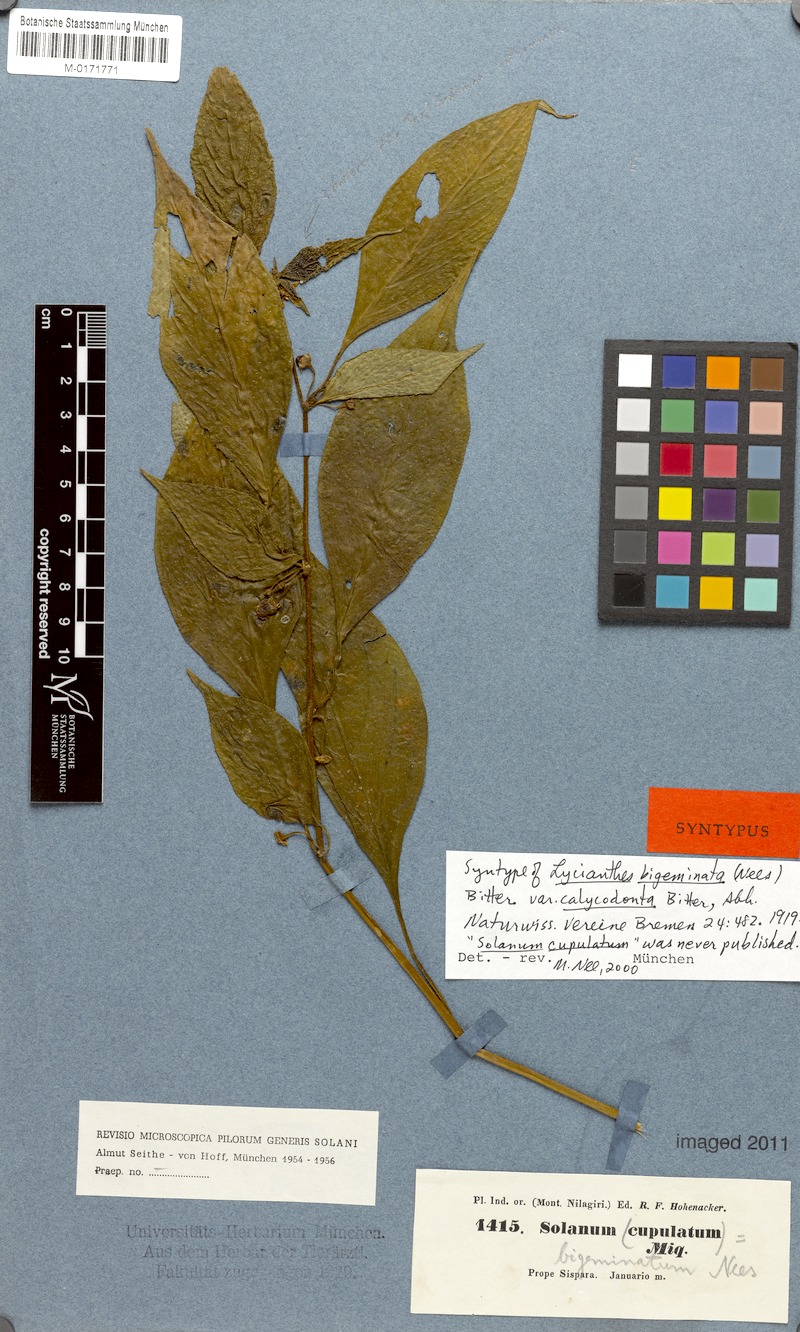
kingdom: Plantae
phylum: Tracheophyta
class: Magnoliopsida
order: Solanales
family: Solanaceae
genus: Lycianthes
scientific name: Lycianthes bigeminata
